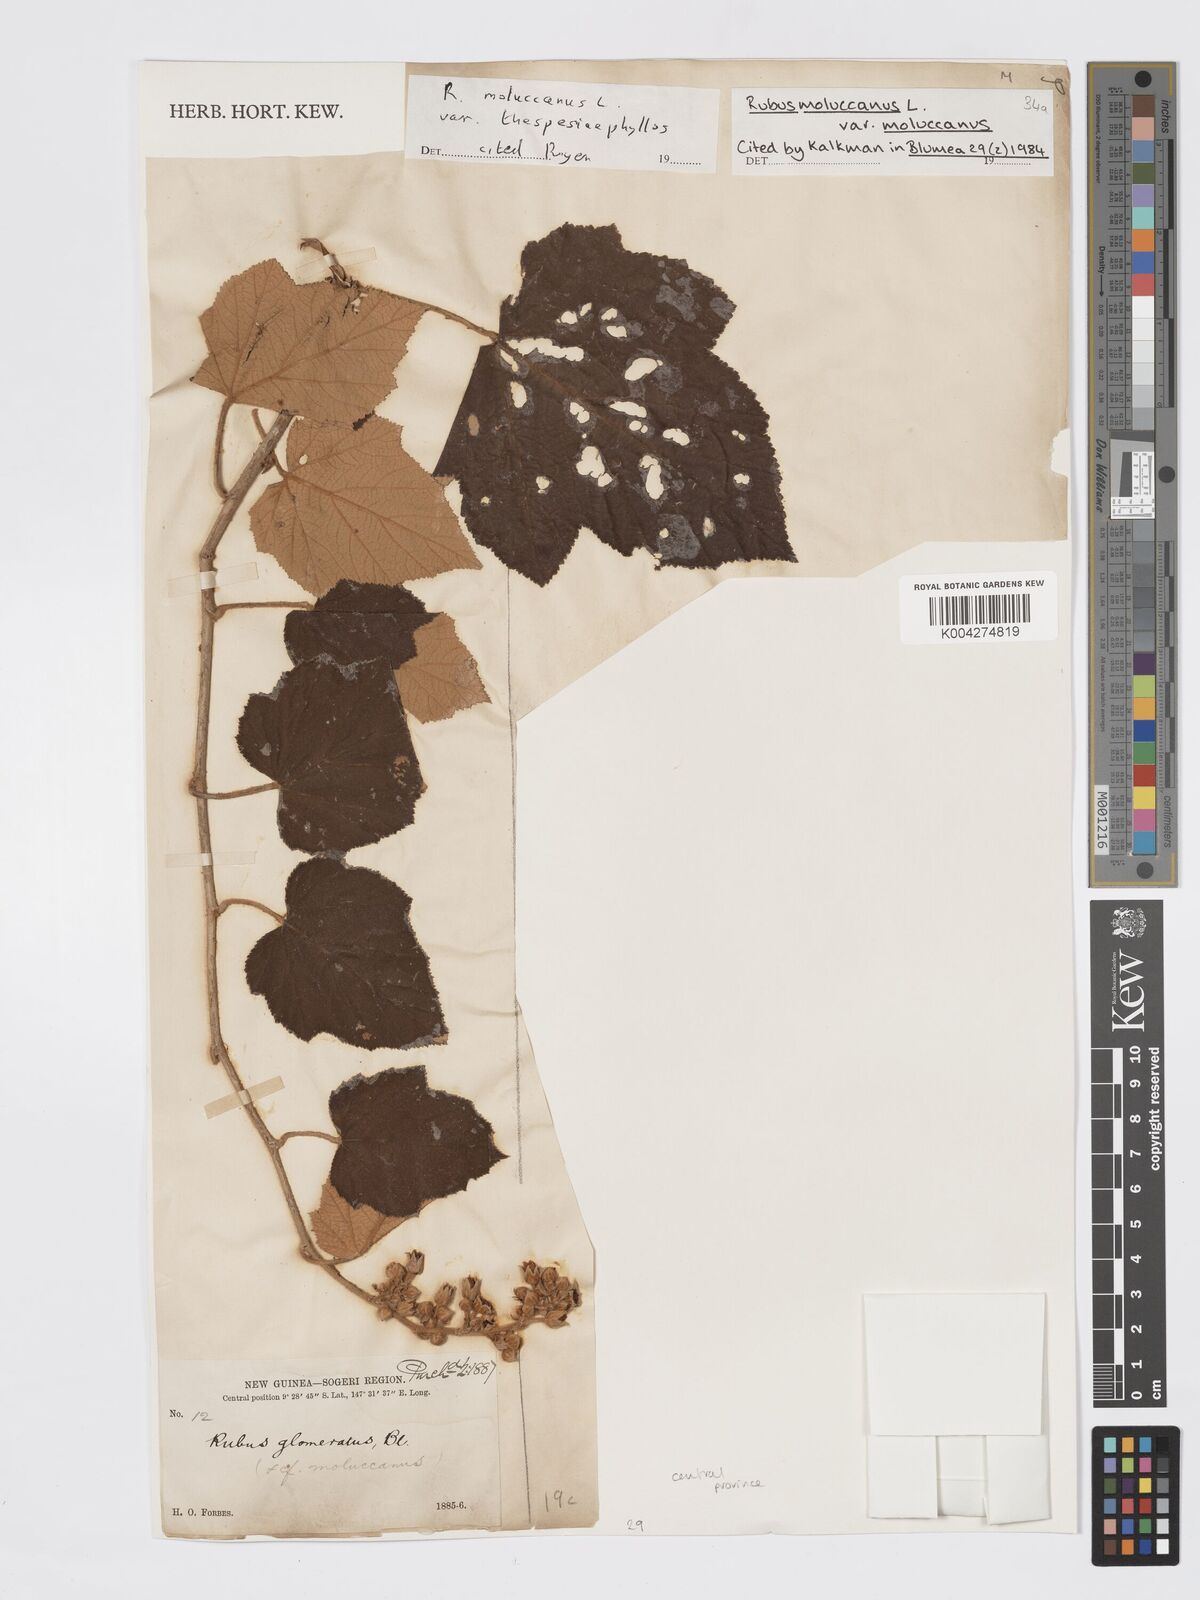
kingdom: Plantae
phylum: Tracheophyta
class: Magnoliopsida
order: Rosales
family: Rosaceae
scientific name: Rosaceae
